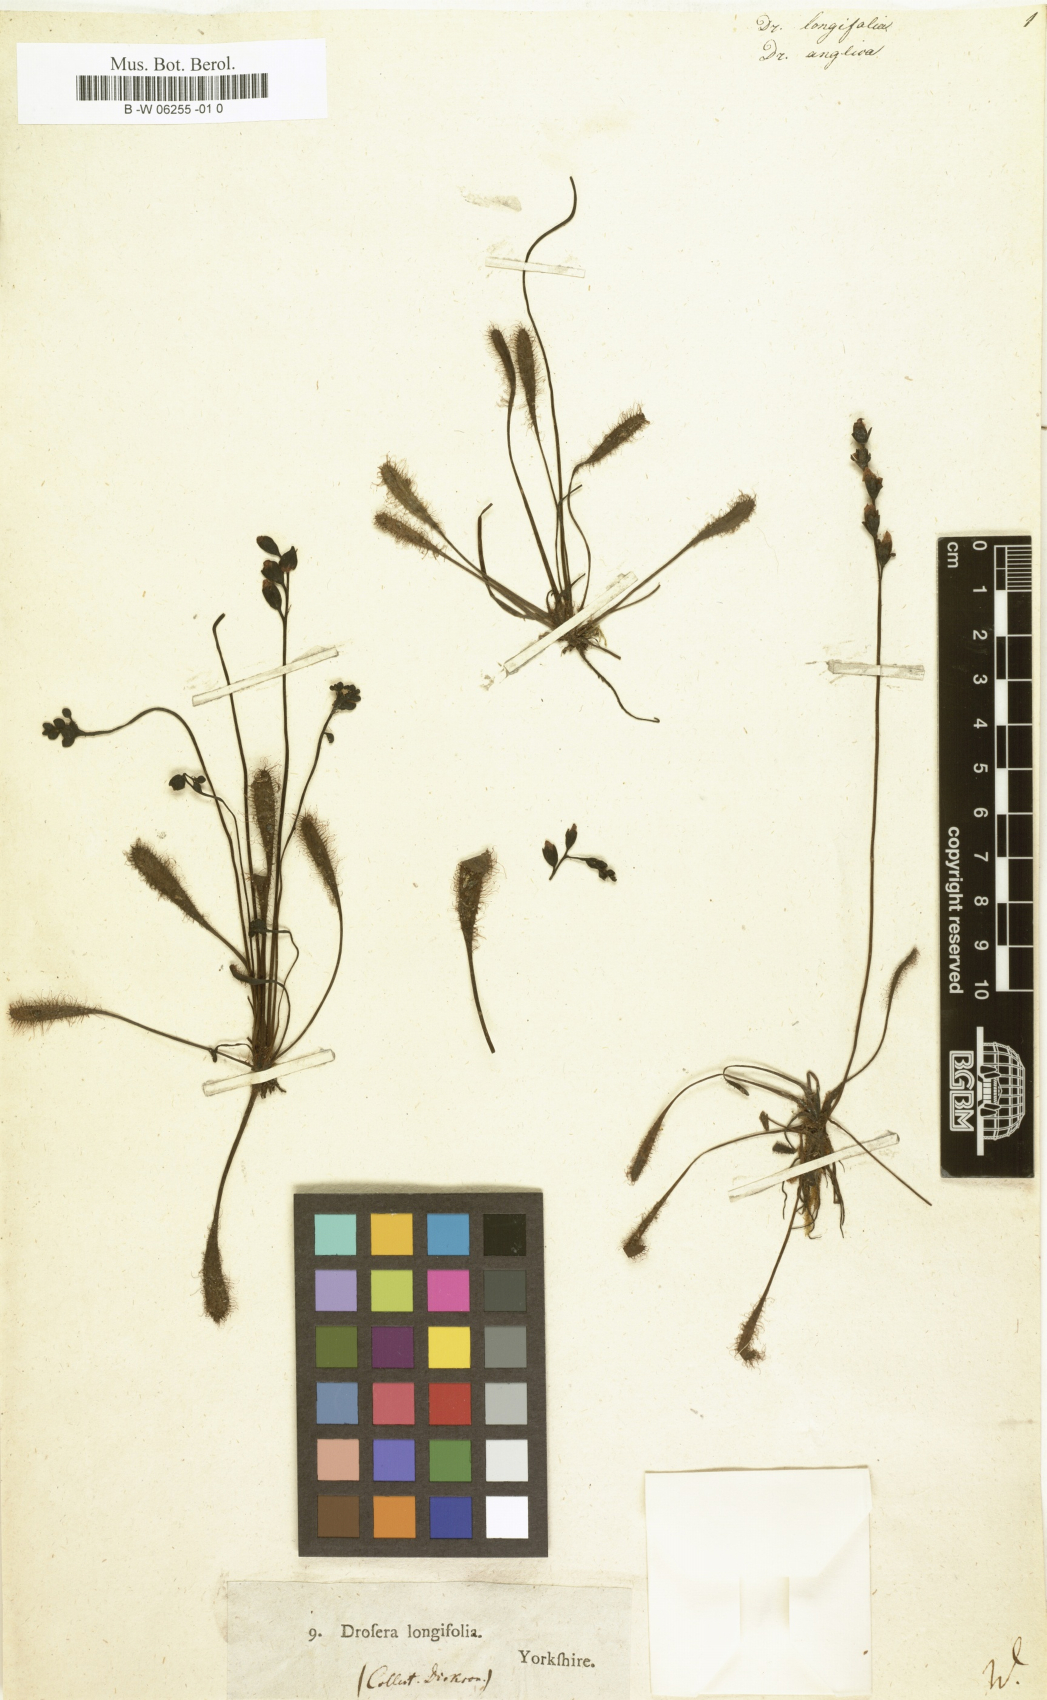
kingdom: Plantae
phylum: Tracheophyta
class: Magnoliopsida
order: Caryophyllales
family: Droseraceae
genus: Drosera
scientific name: Drosera longifolia
